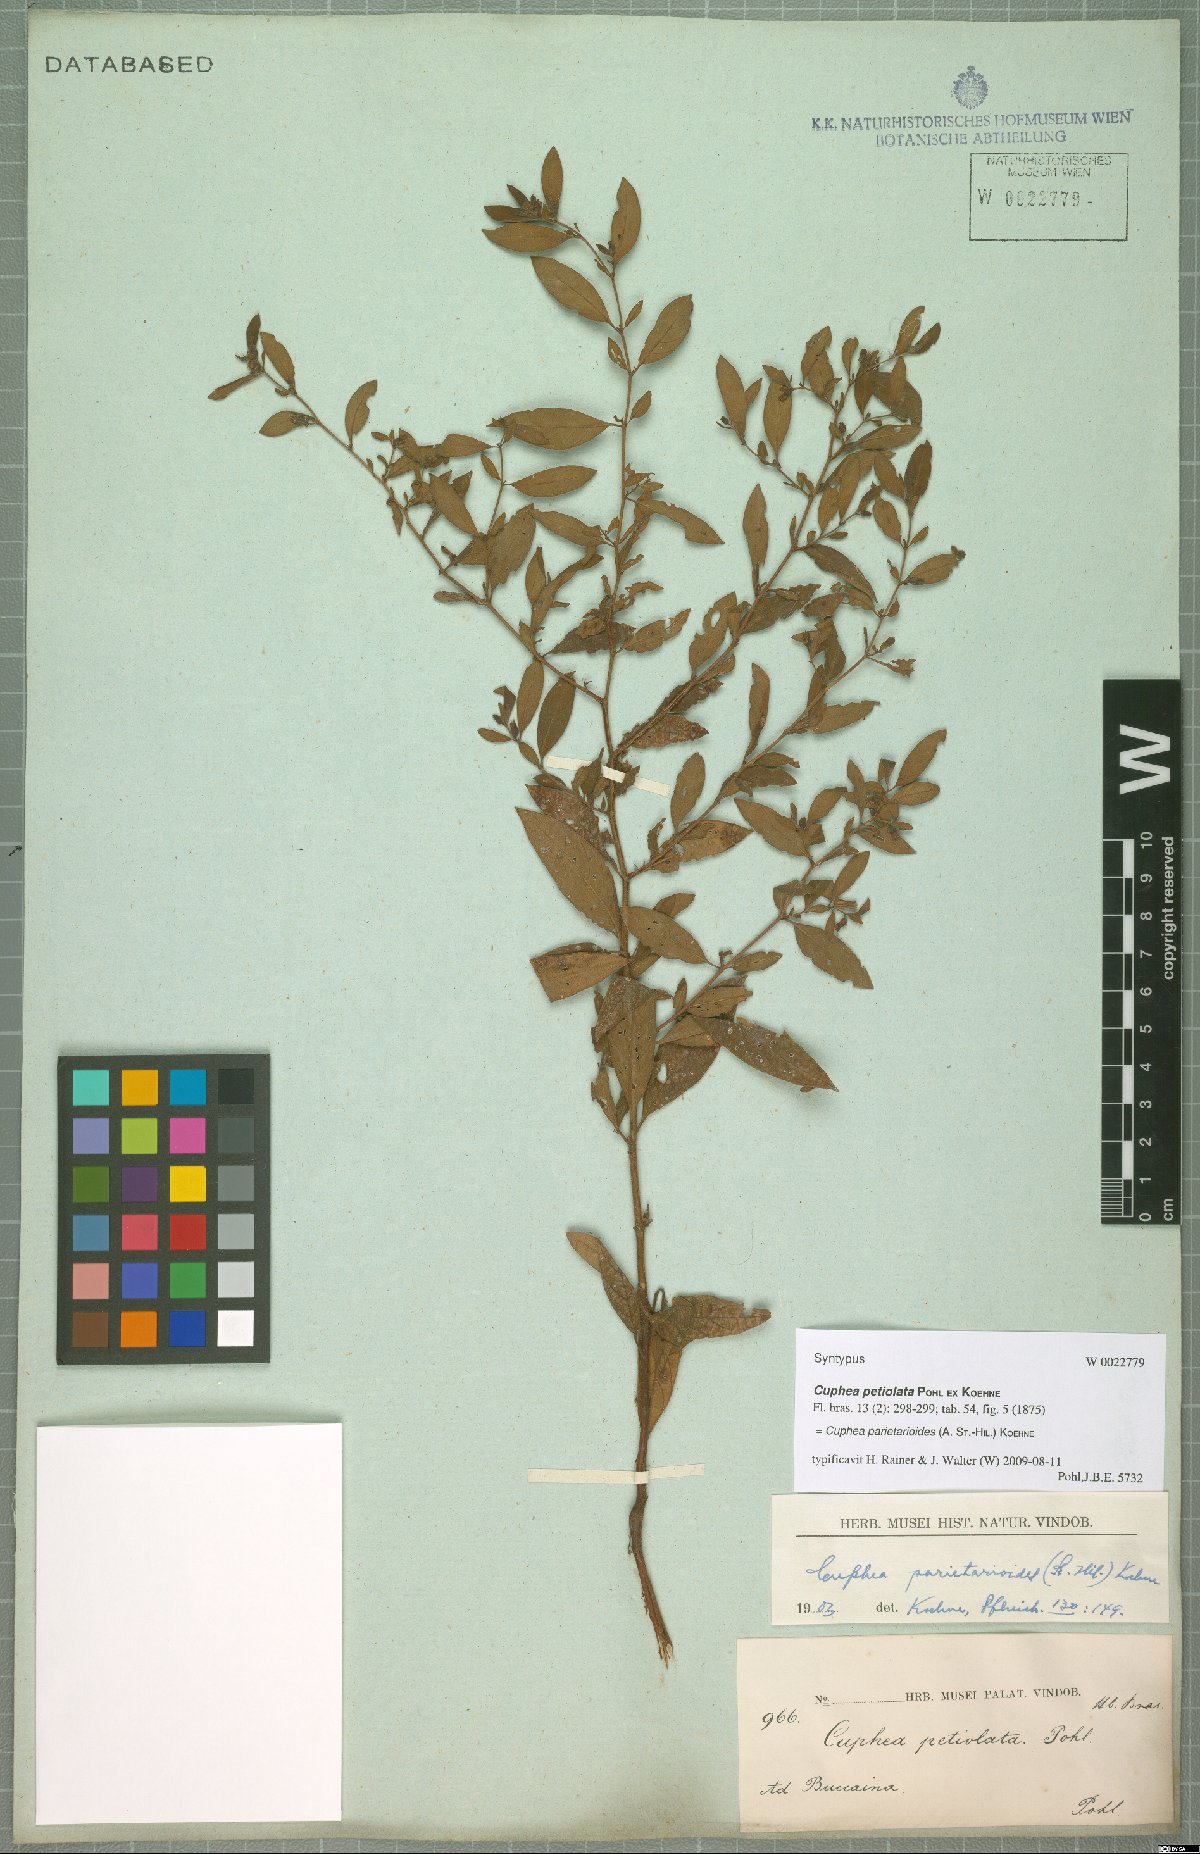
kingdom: Plantae
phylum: Tracheophyta
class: Magnoliopsida
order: Myrtales
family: Lythraceae
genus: Cuphea
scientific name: Cuphea
